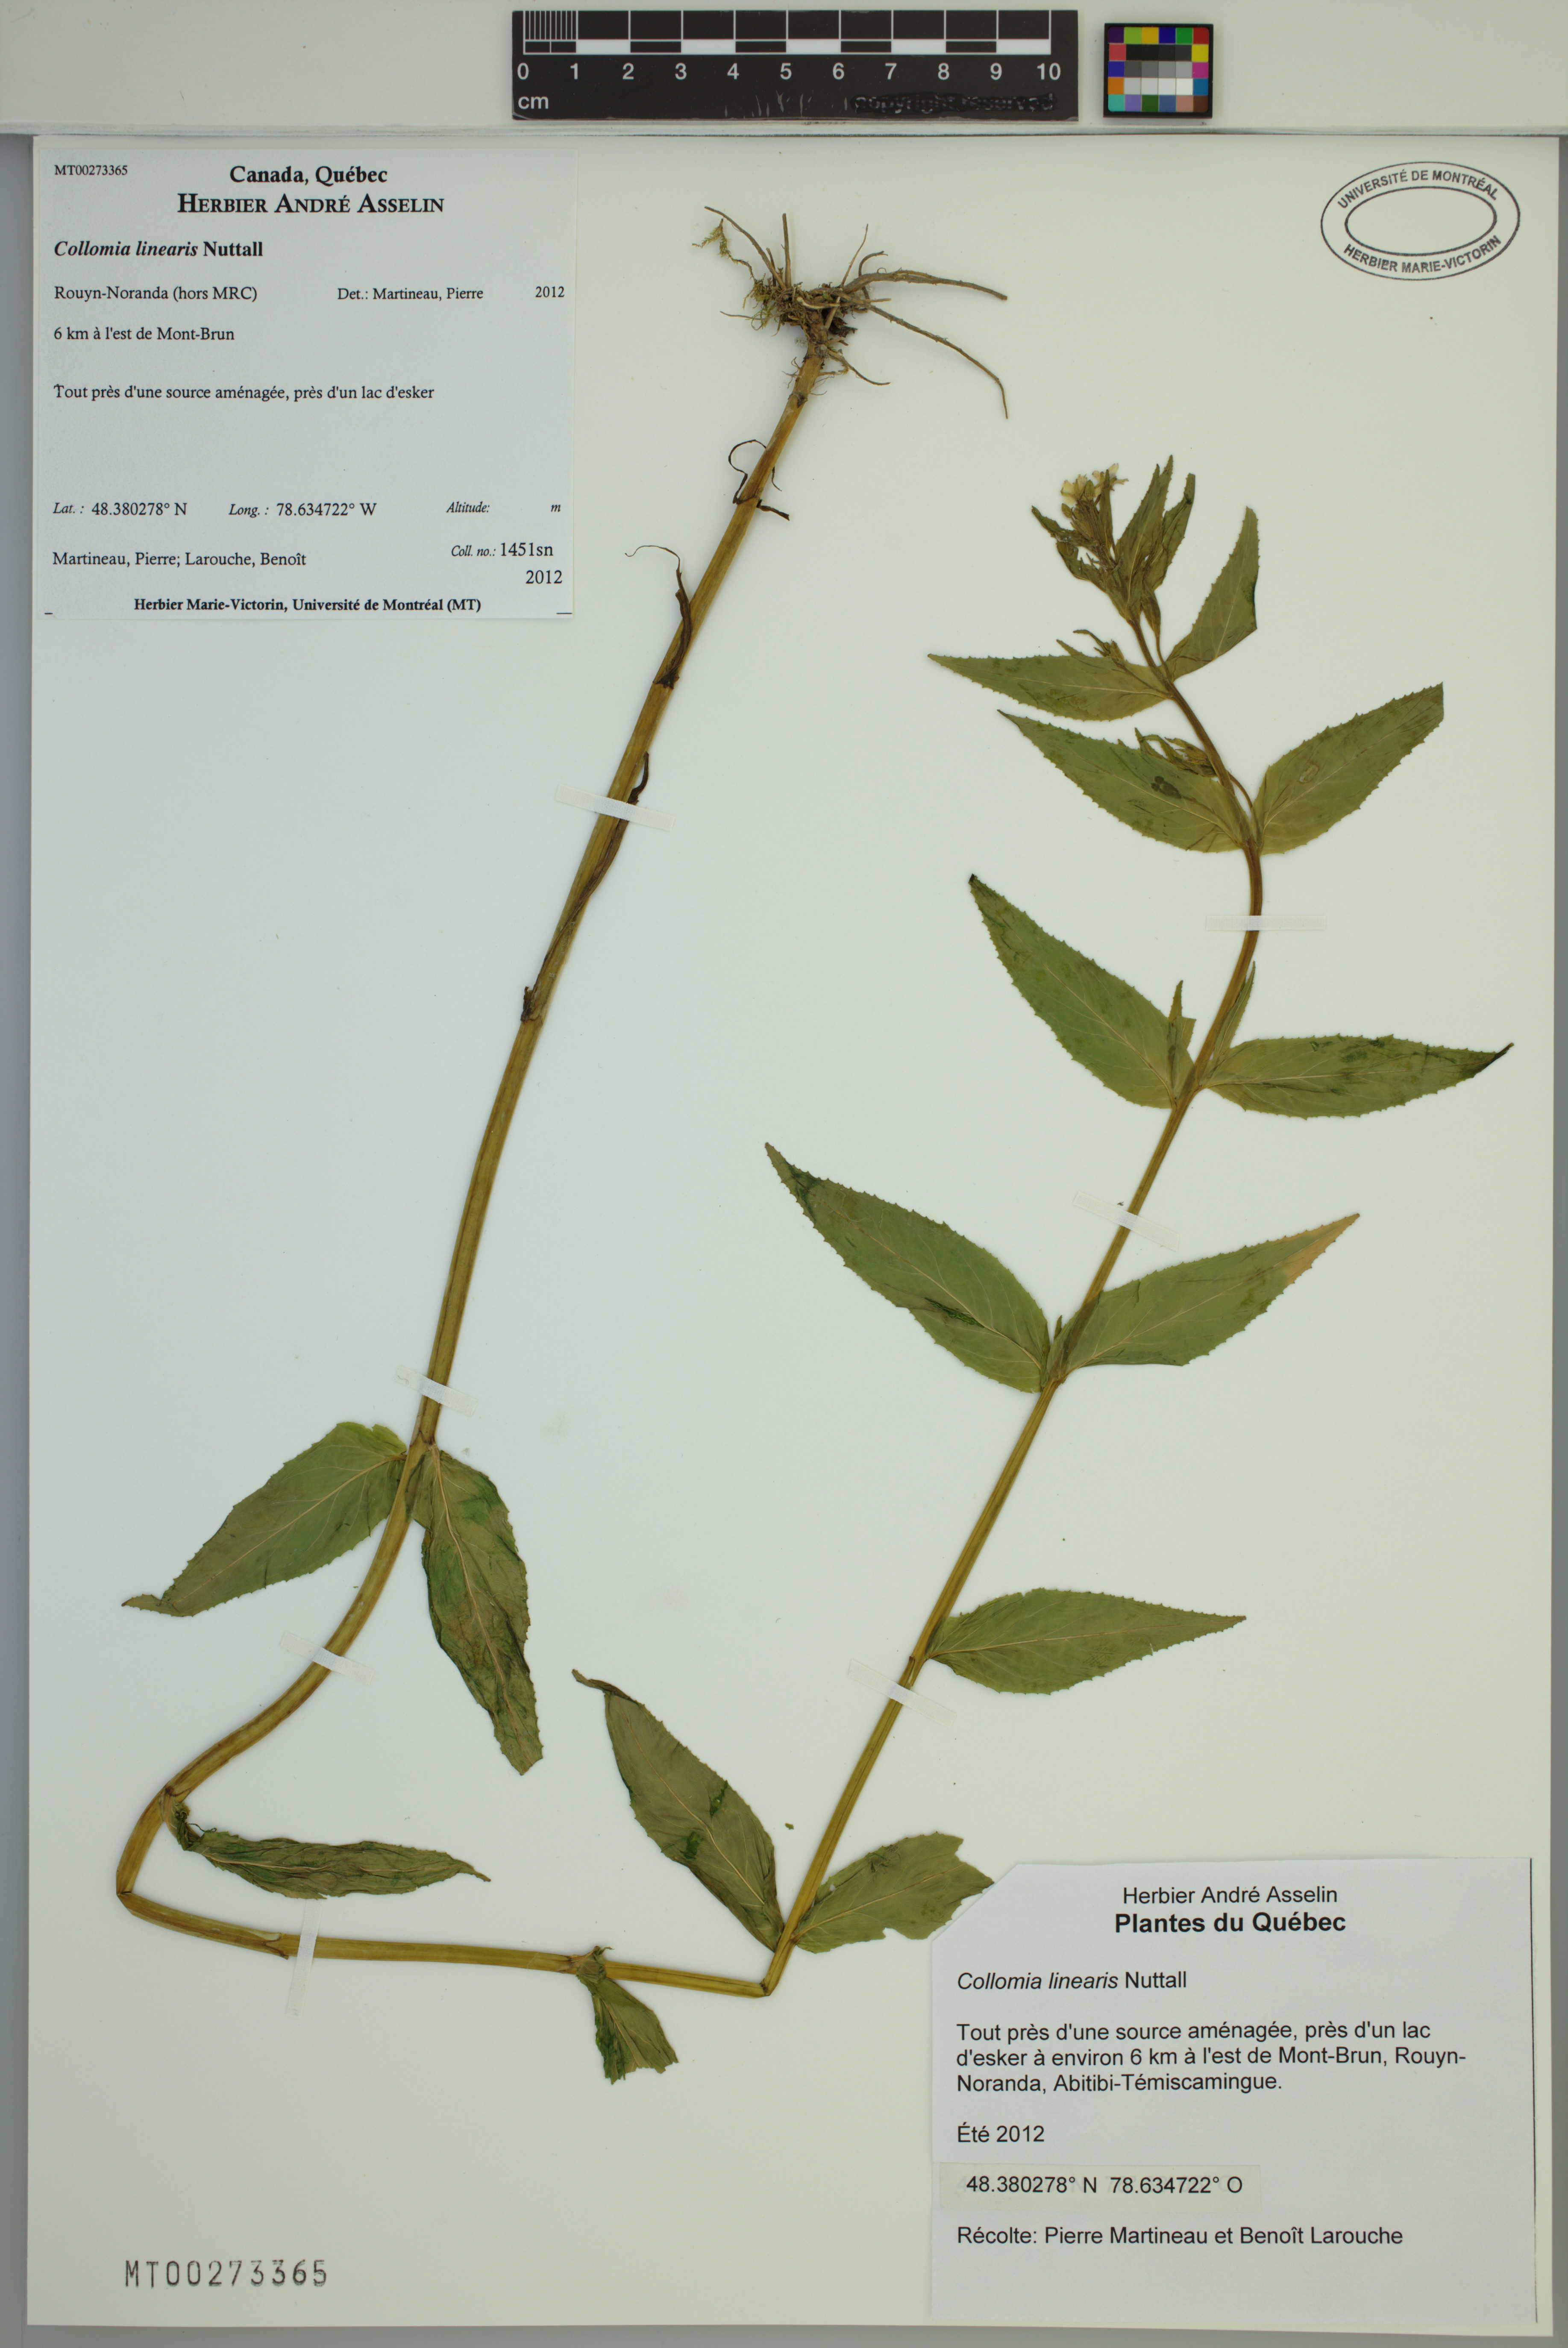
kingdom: Plantae
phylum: Tracheophyta
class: Magnoliopsida
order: Ericales
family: Polemoniaceae
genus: Collomia
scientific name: Collomia linearis
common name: Tiny trumpet
